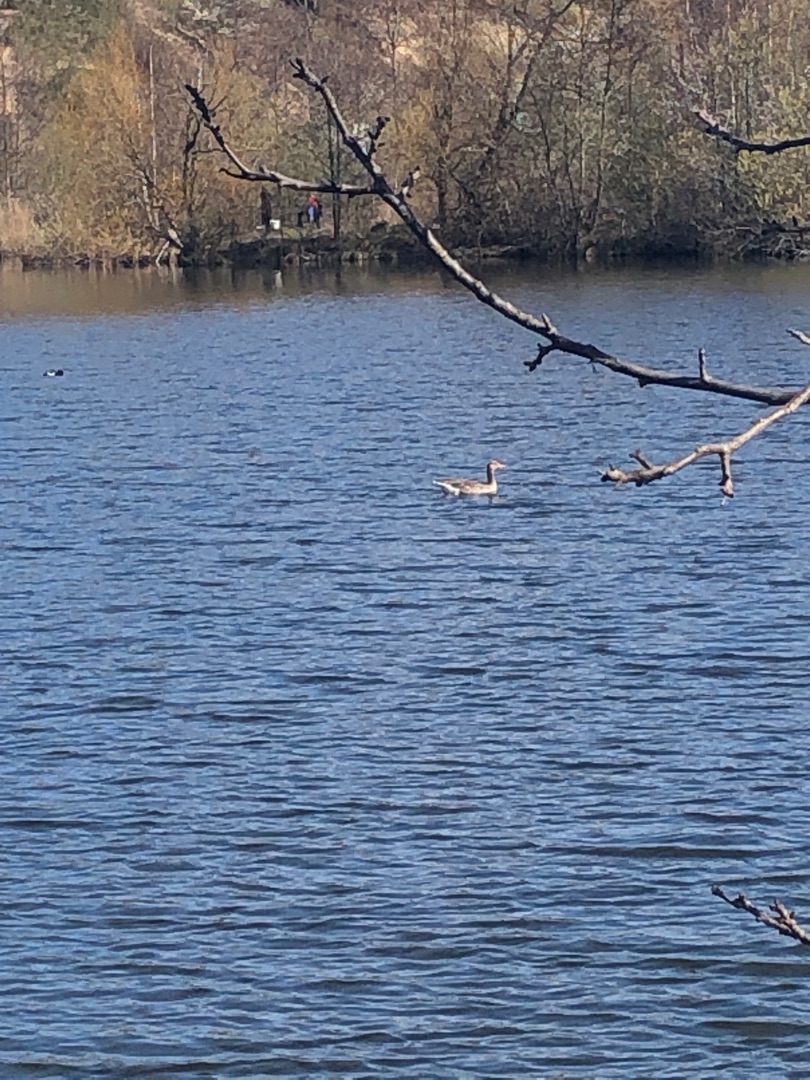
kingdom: Animalia
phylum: Chordata
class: Aves
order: Anseriformes
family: Anatidae
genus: Anser
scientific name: Anser anser
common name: Grågås
